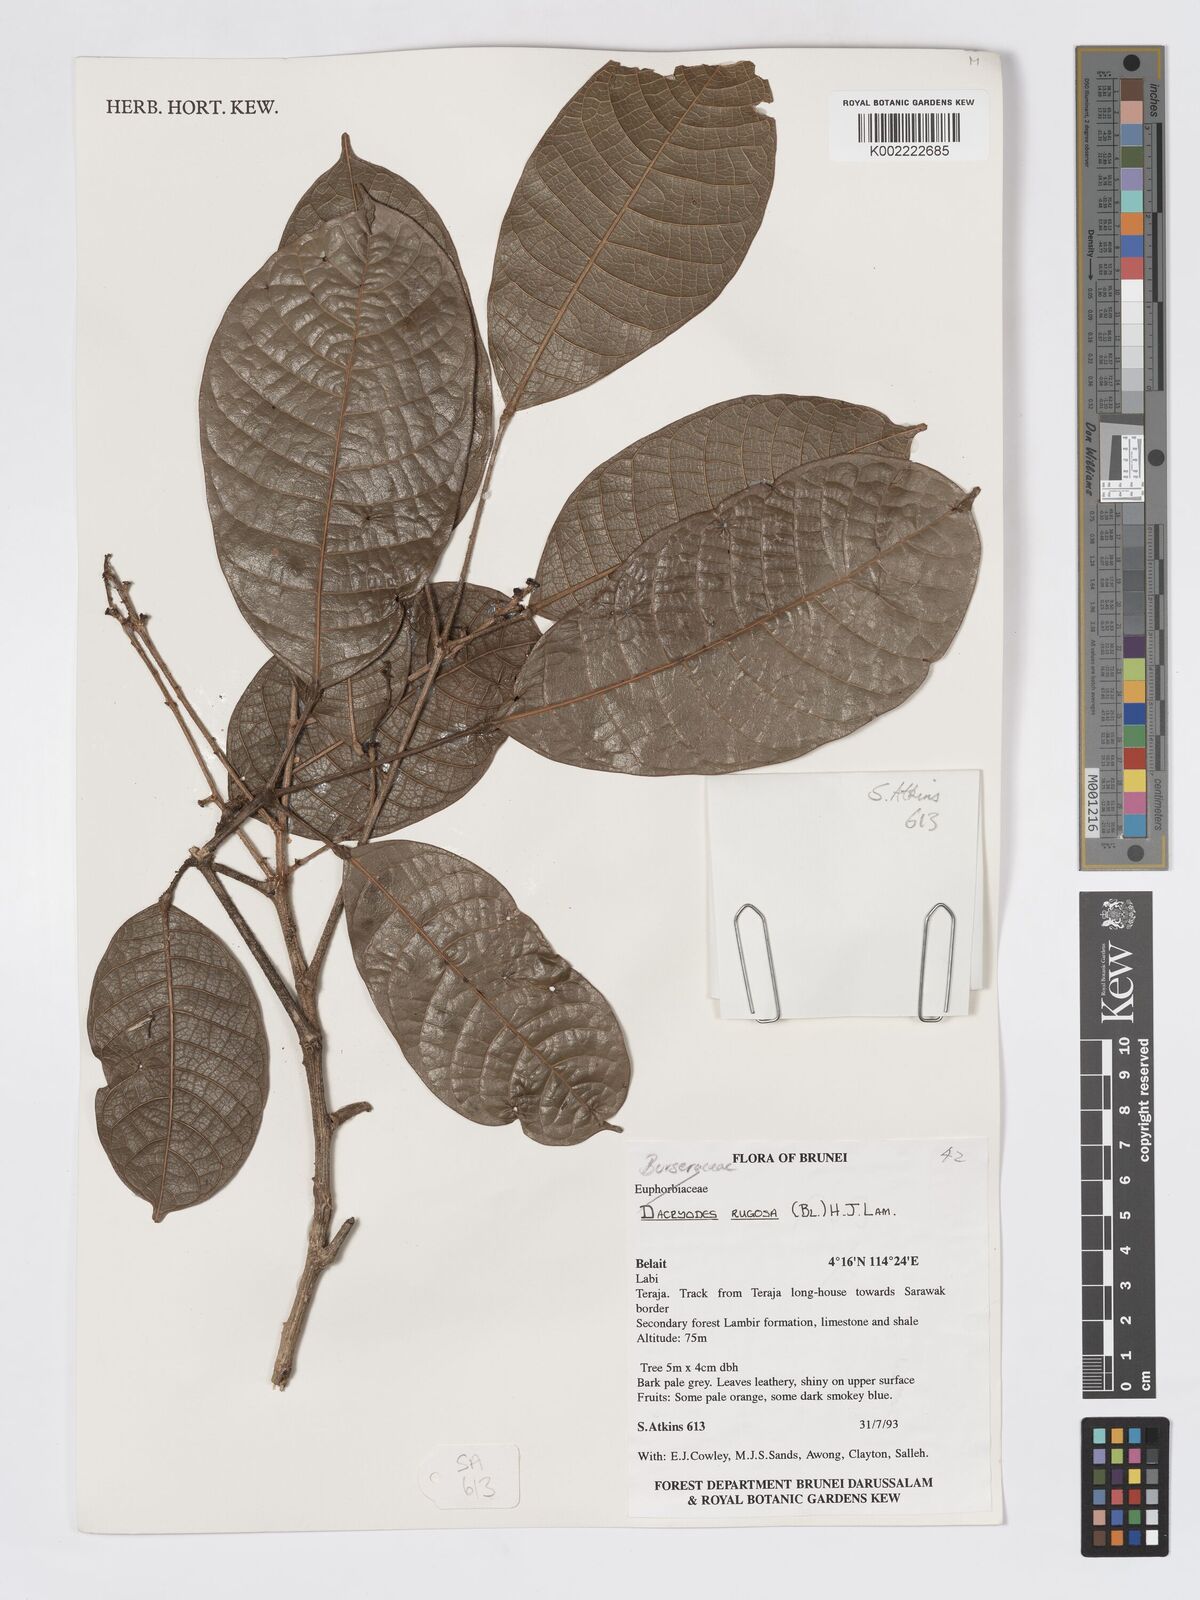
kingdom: Plantae
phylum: Tracheophyta
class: Magnoliopsida
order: Sapindales
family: Burseraceae
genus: Dacryodes
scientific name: Dacryodes rugosa
